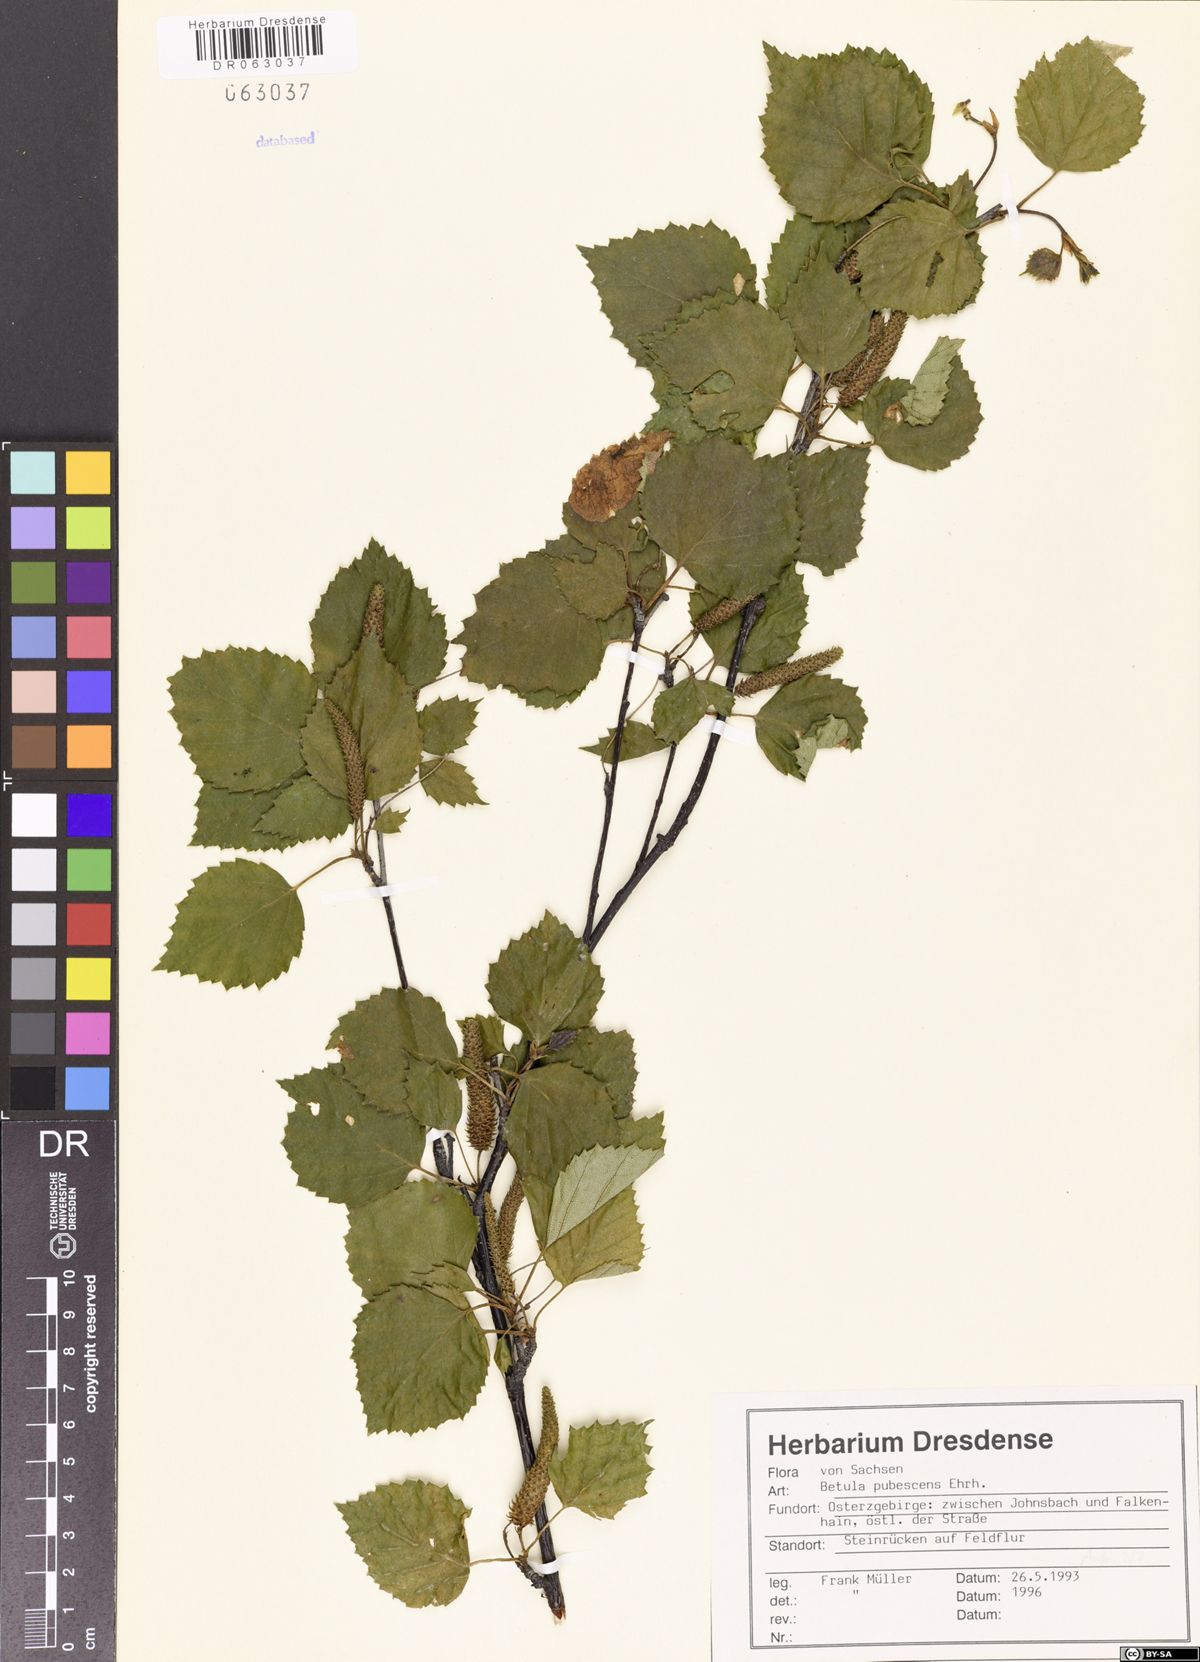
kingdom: Plantae
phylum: Tracheophyta
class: Magnoliopsida
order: Fagales
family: Betulaceae
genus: Betula
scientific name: Betula pubescens
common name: Downy birch
